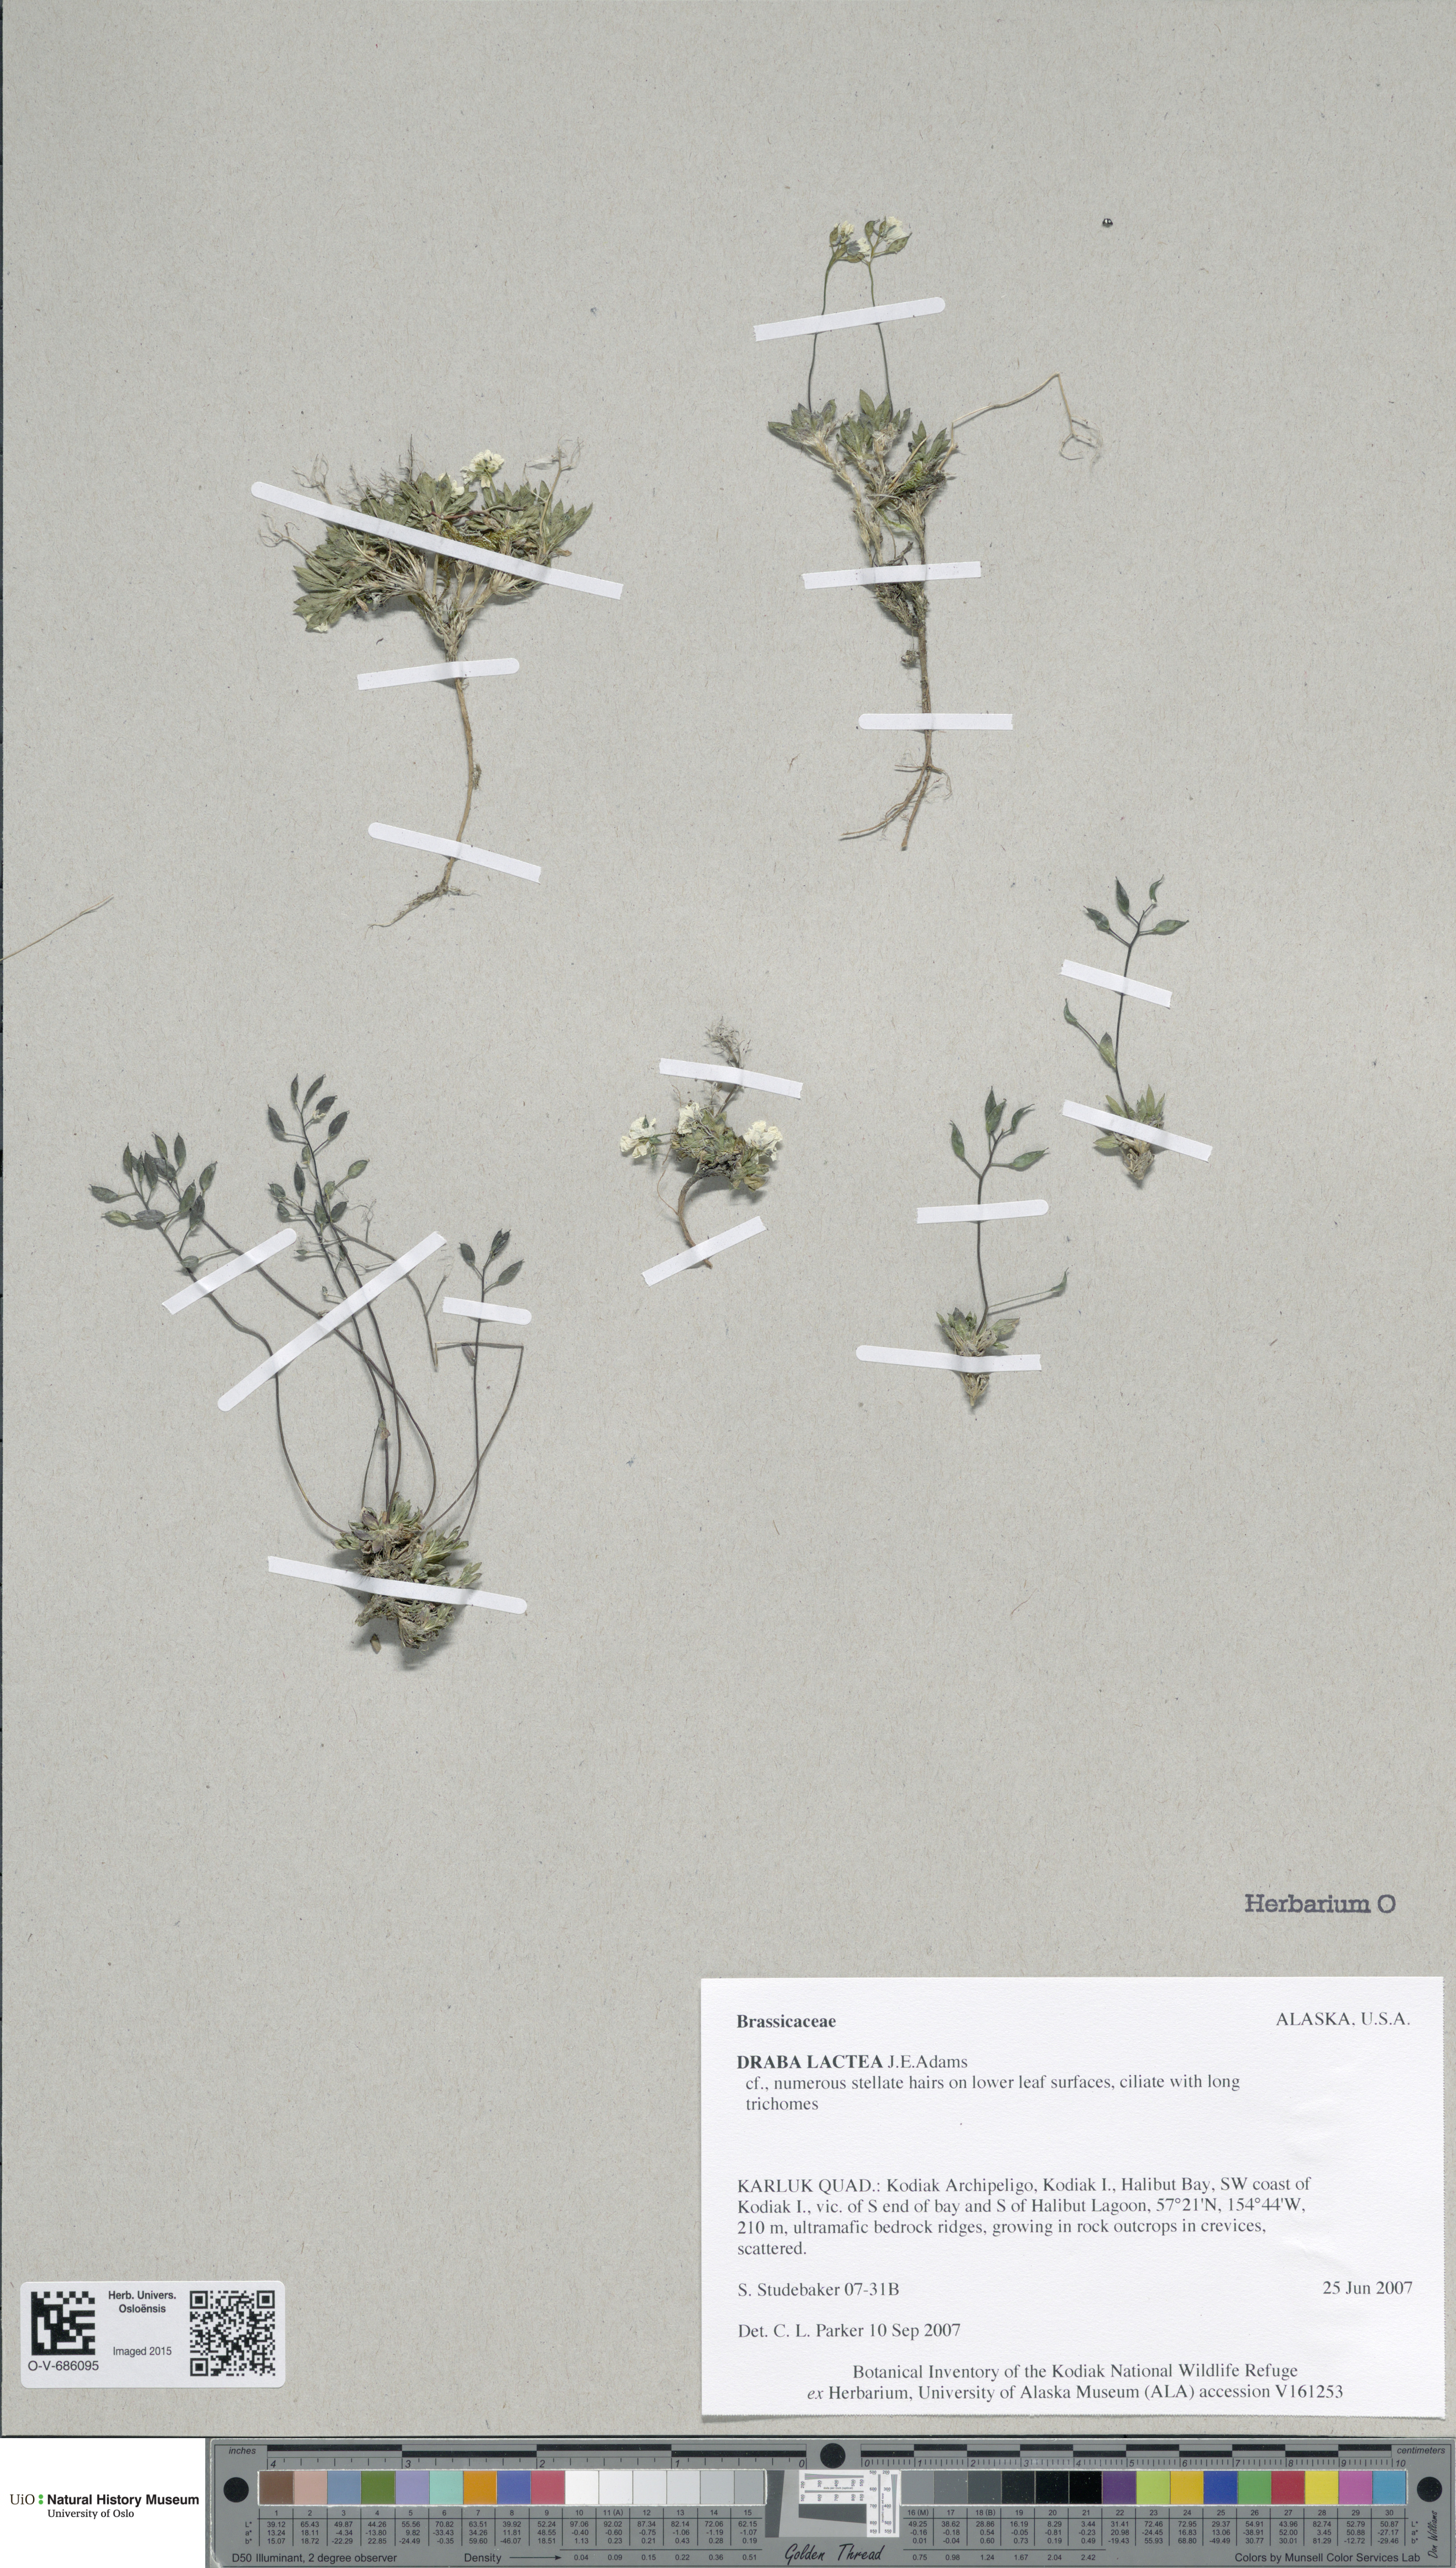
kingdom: Plantae
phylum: Tracheophyta
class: Magnoliopsida
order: Brassicales
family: Brassicaceae
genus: Draba
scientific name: Draba lactea
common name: Milky draba
